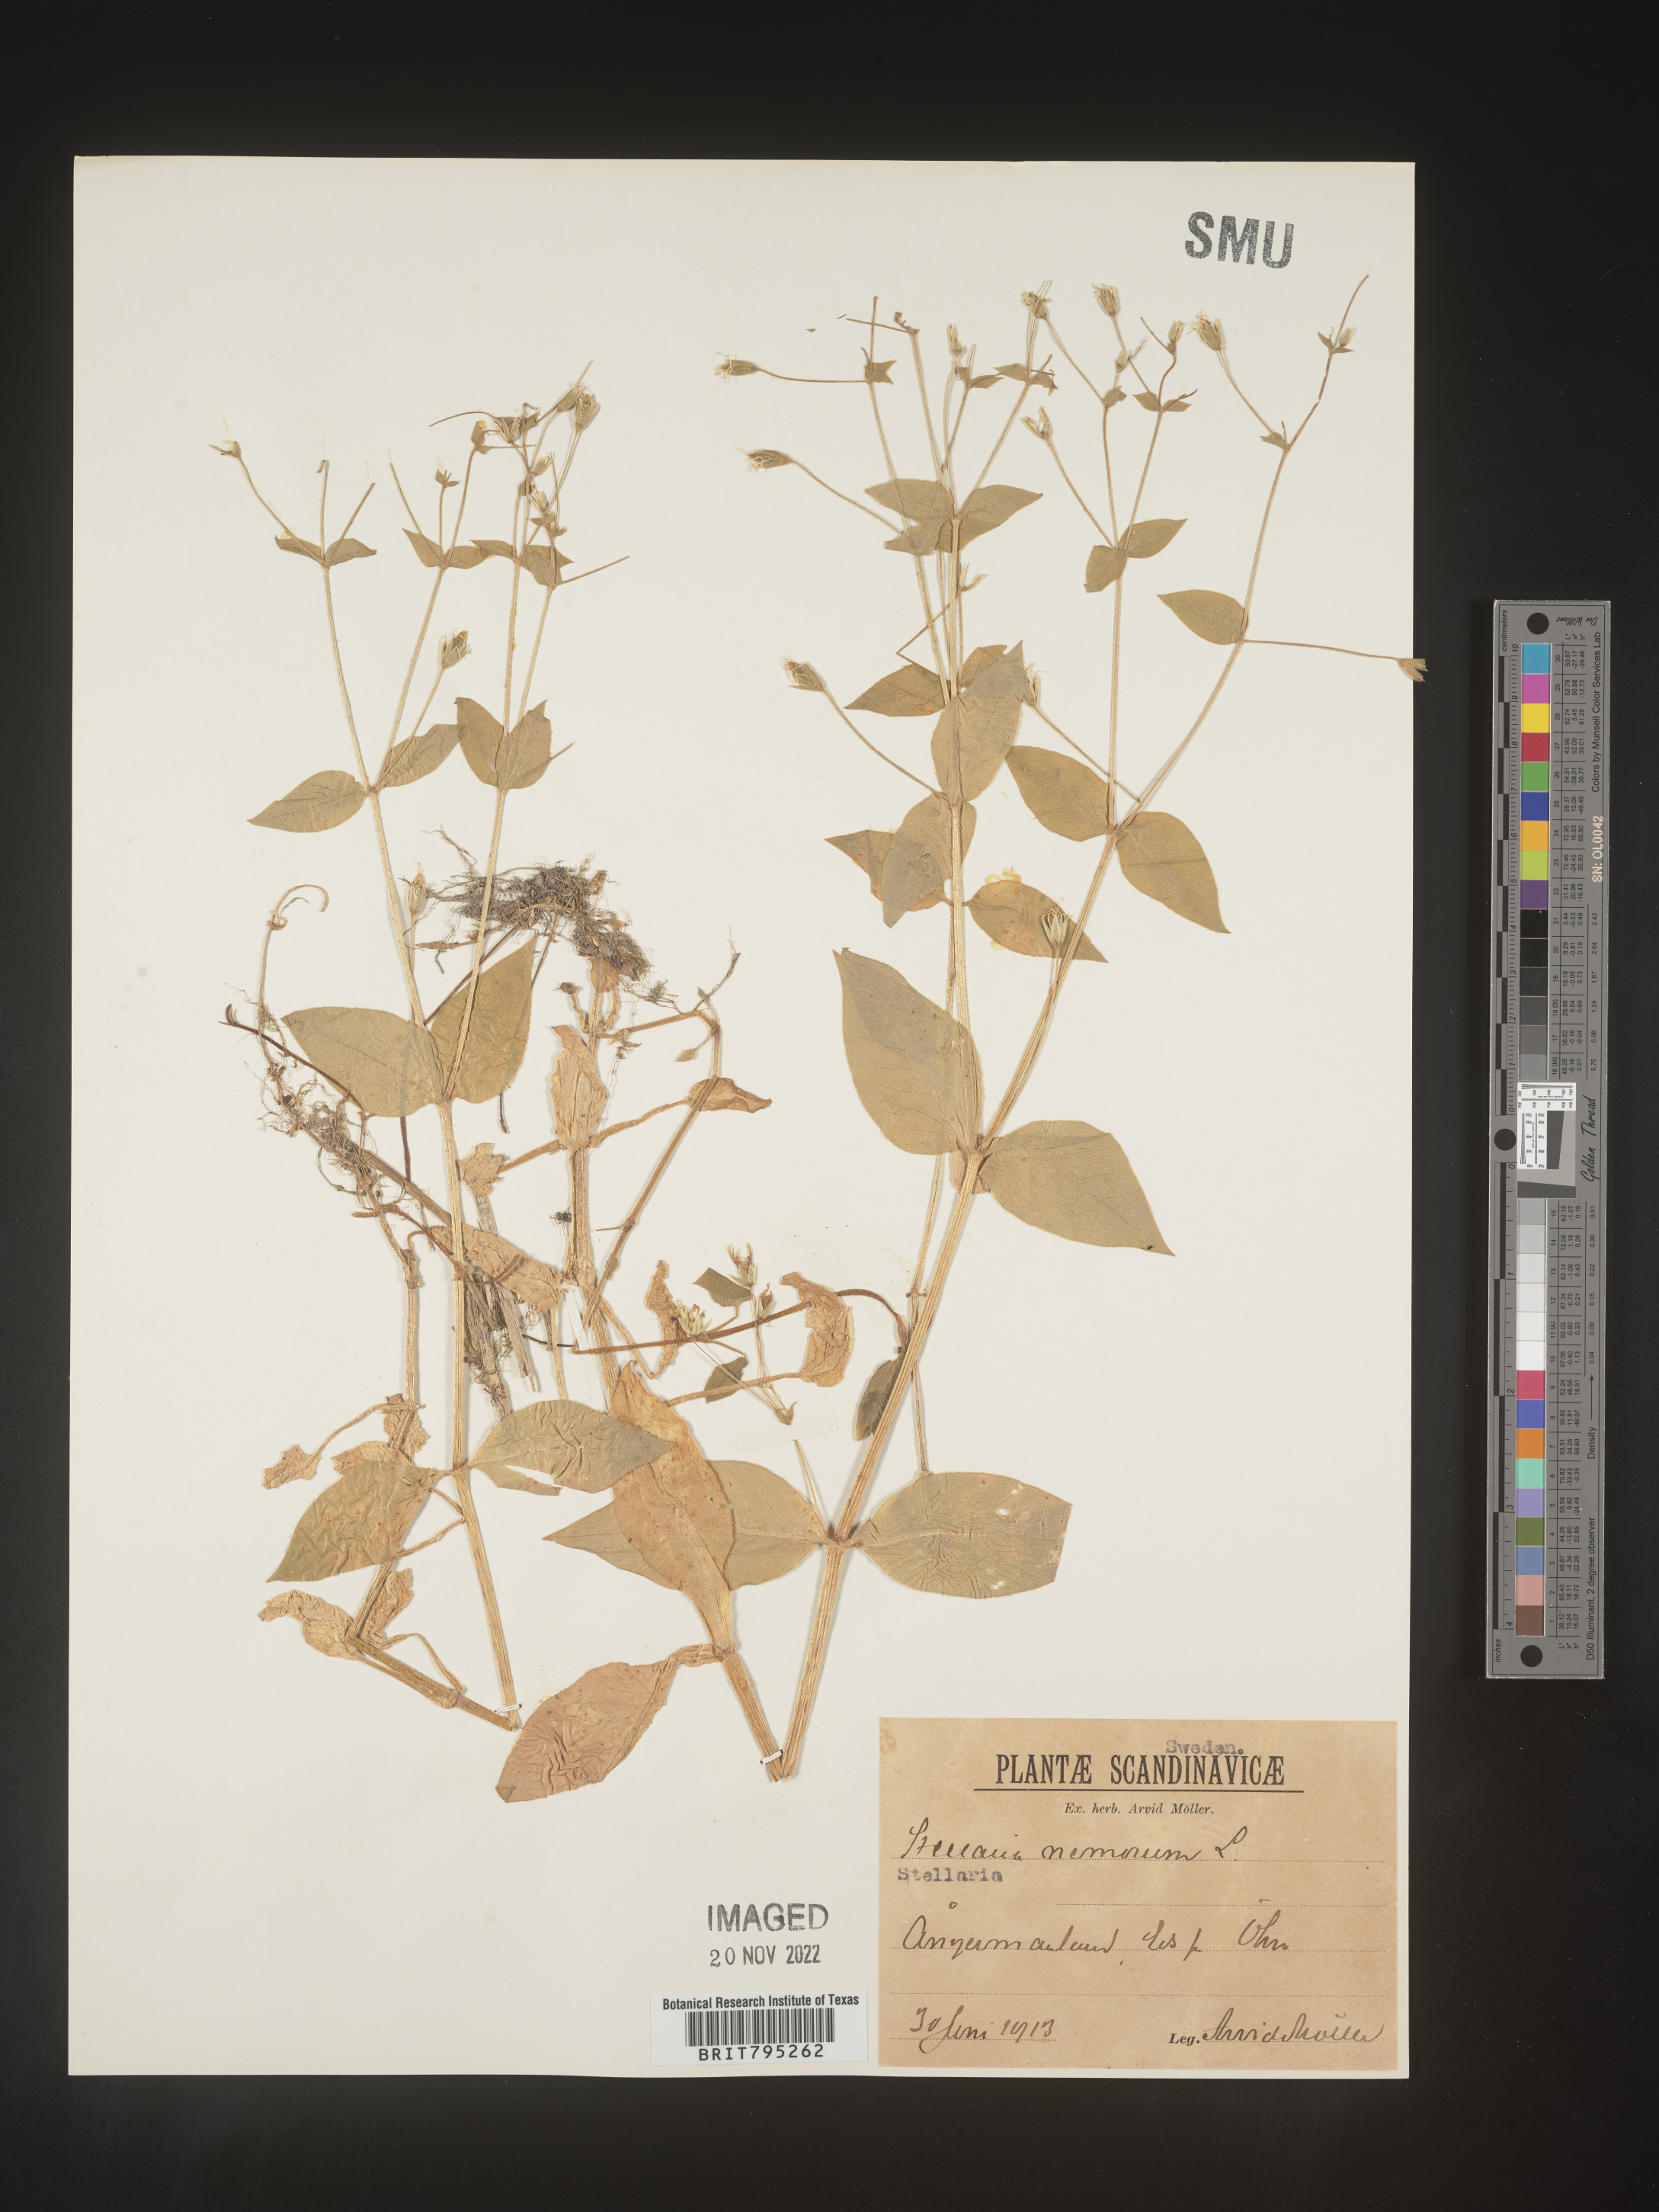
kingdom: Plantae
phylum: Tracheophyta
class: Magnoliopsida
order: Caryophyllales
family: Caryophyllaceae
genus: Stellaria
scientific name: Stellaria
